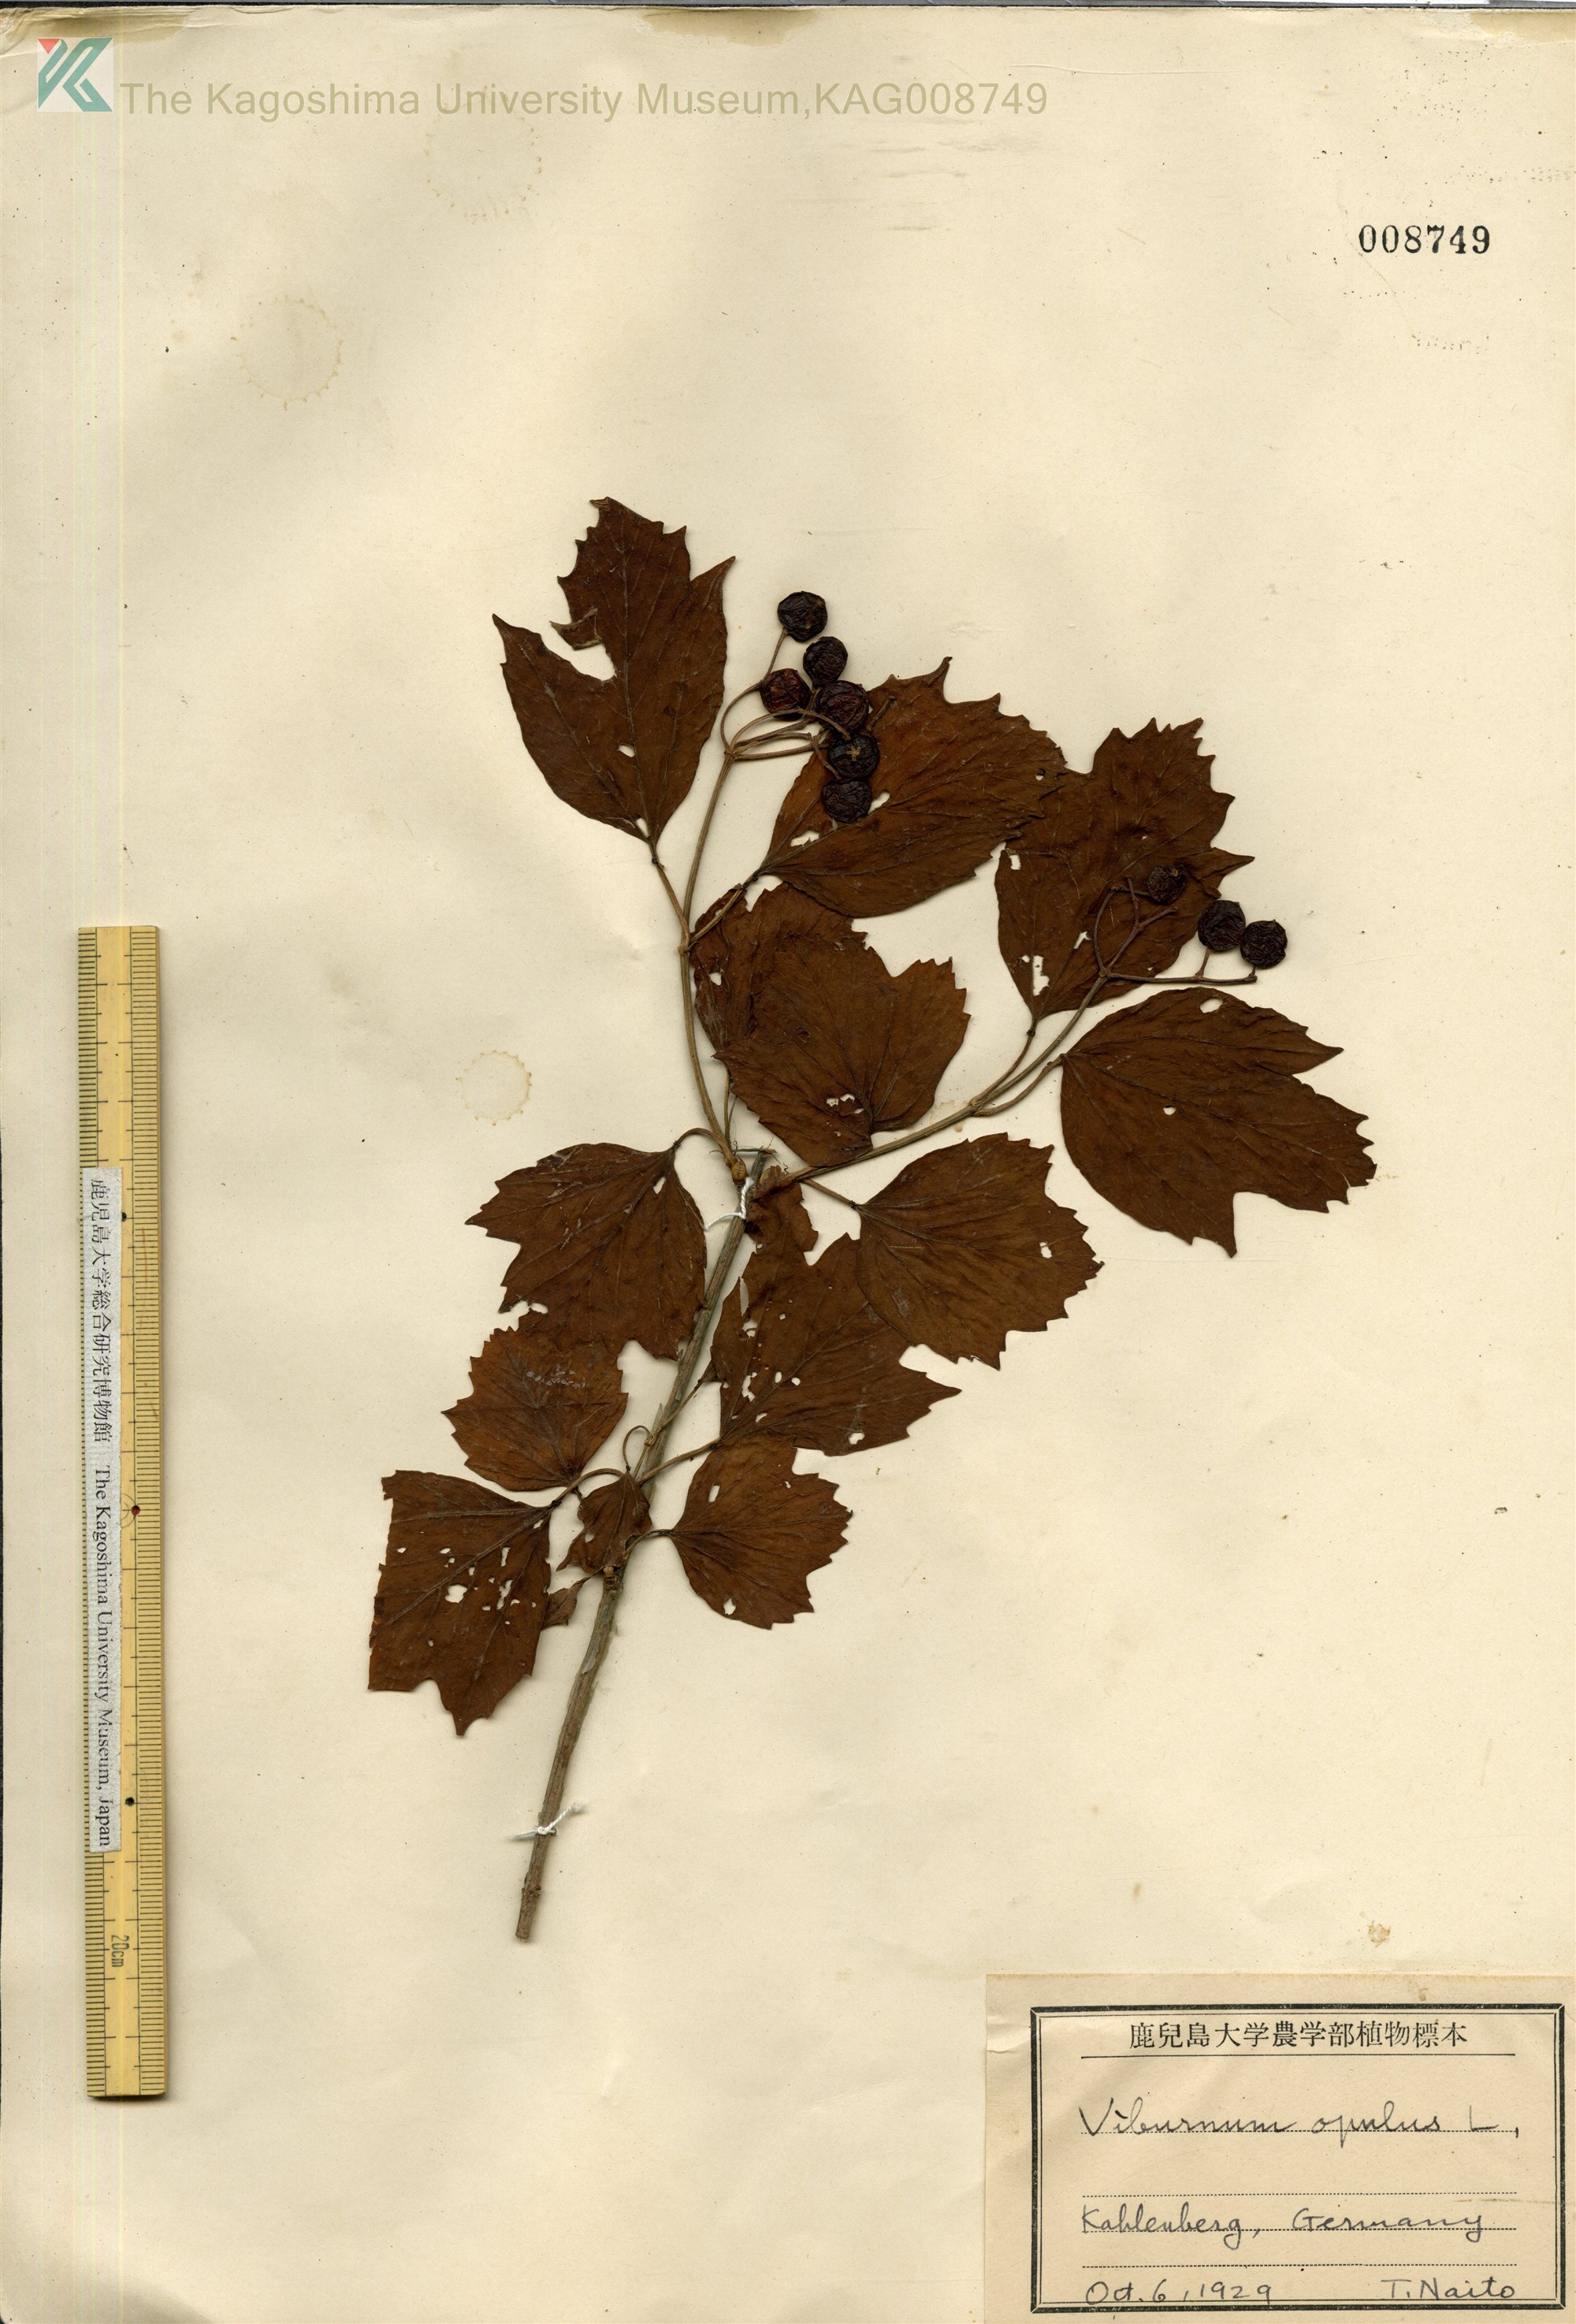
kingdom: Plantae
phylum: Tracheophyta
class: Magnoliopsida
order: Dipsacales
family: Viburnaceae
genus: Viburnum
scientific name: Viburnum opulus
